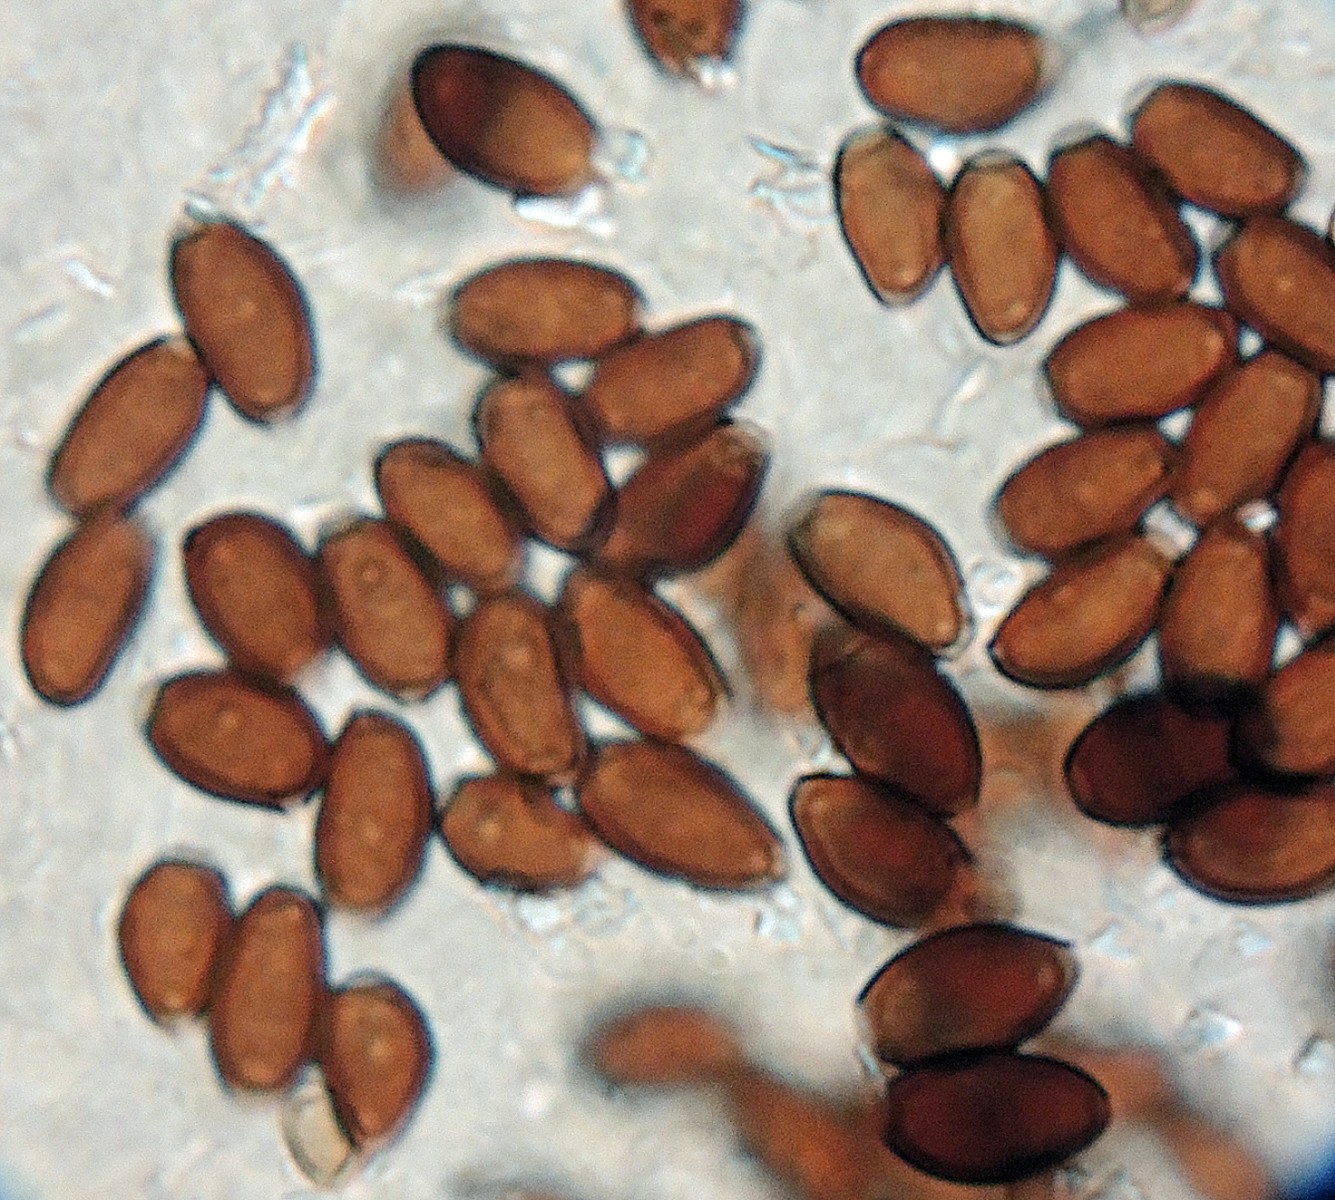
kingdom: Fungi
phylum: Basidiomycota
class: Agaricomycetes
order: Agaricales
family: Psathyrellaceae
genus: Coprinopsis
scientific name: Coprinopsis luteocephala
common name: gullig blækhat
